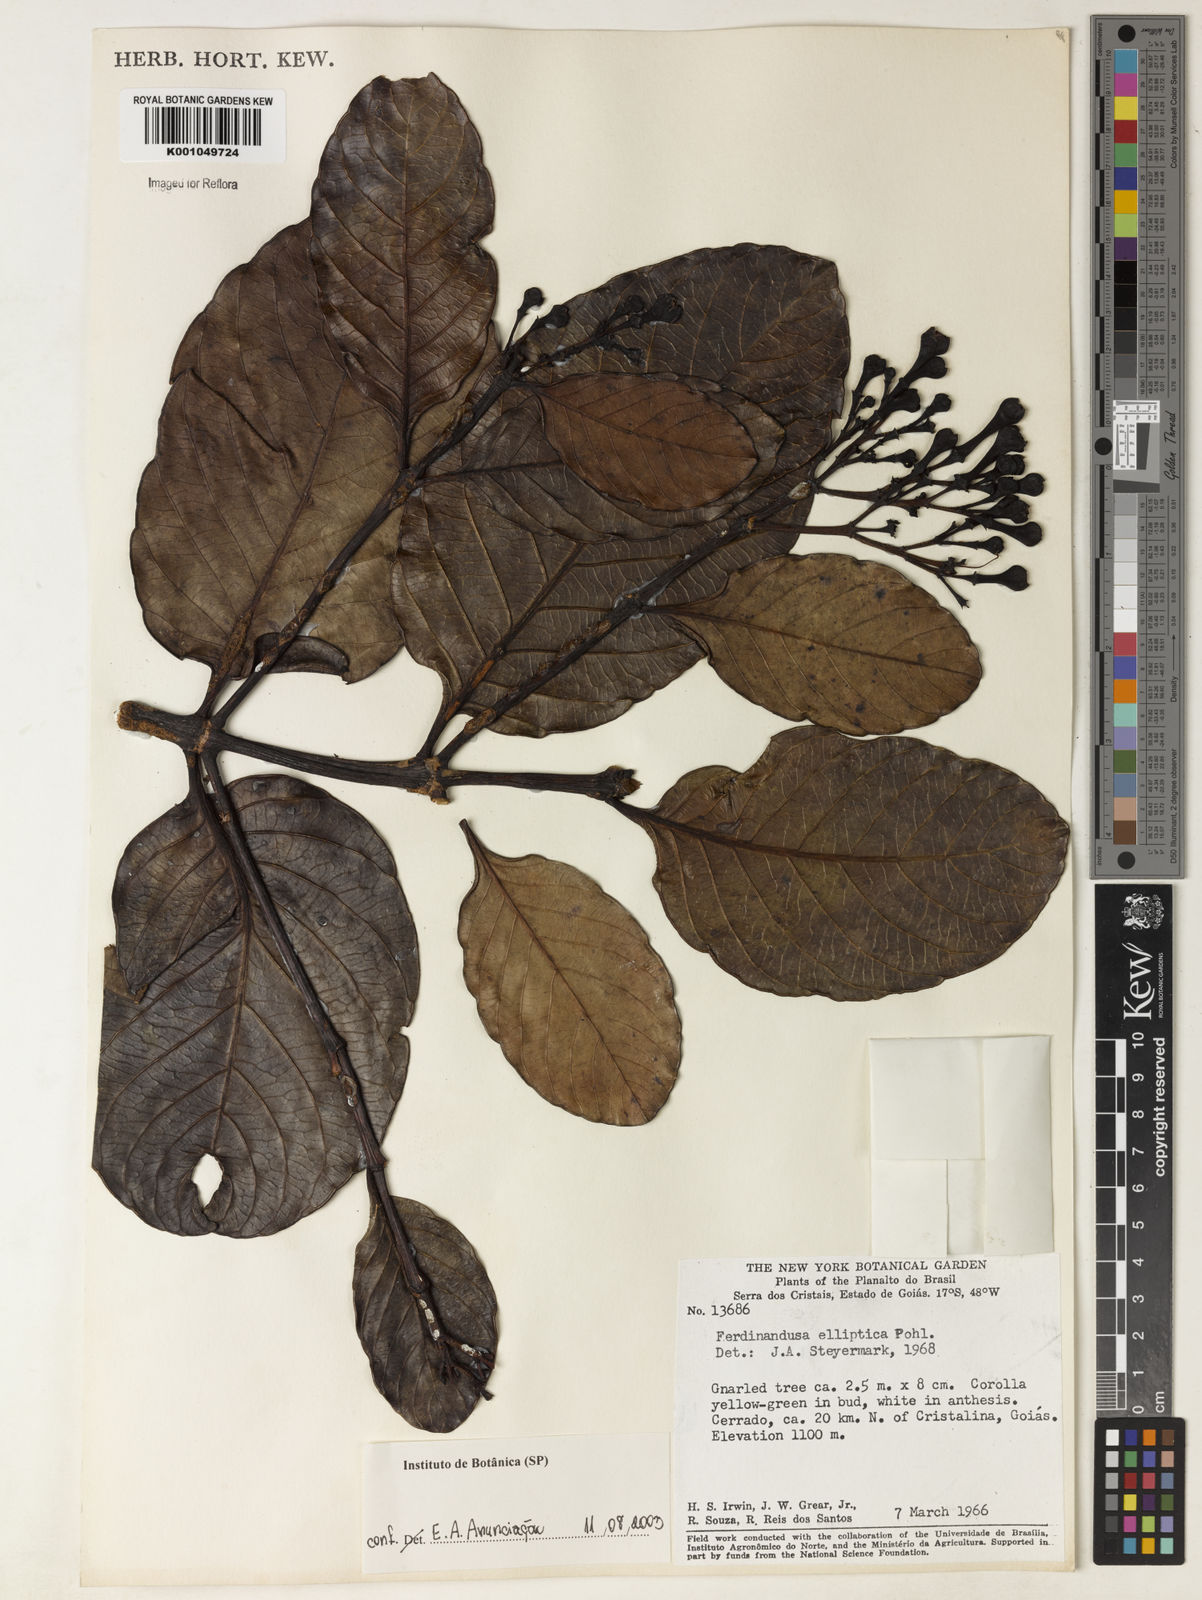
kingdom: Plantae
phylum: Tracheophyta
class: Magnoliopsida
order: Gentianales
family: Rubiaceae
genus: Ferdinandusa
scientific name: Ferdinandusa elliptica
